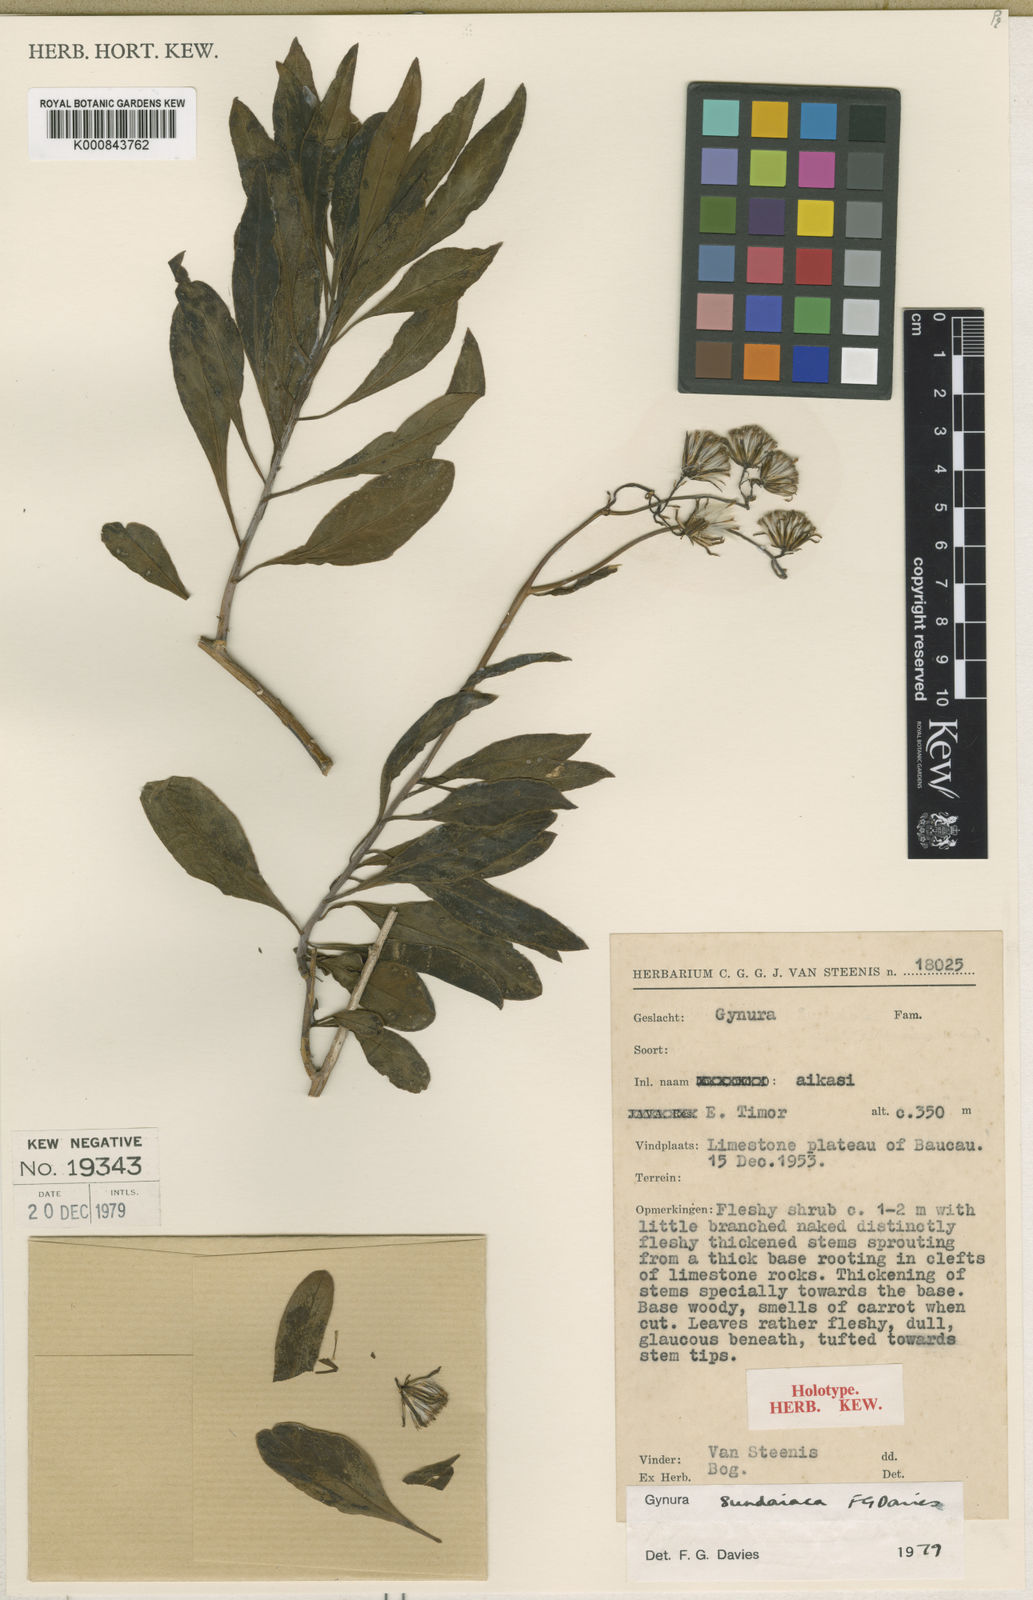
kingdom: Plantae
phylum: Tracheophyta
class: Magnoliopsida
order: Asterales
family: Asteraceae
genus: Gynura
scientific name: Gynura sundaiaca
